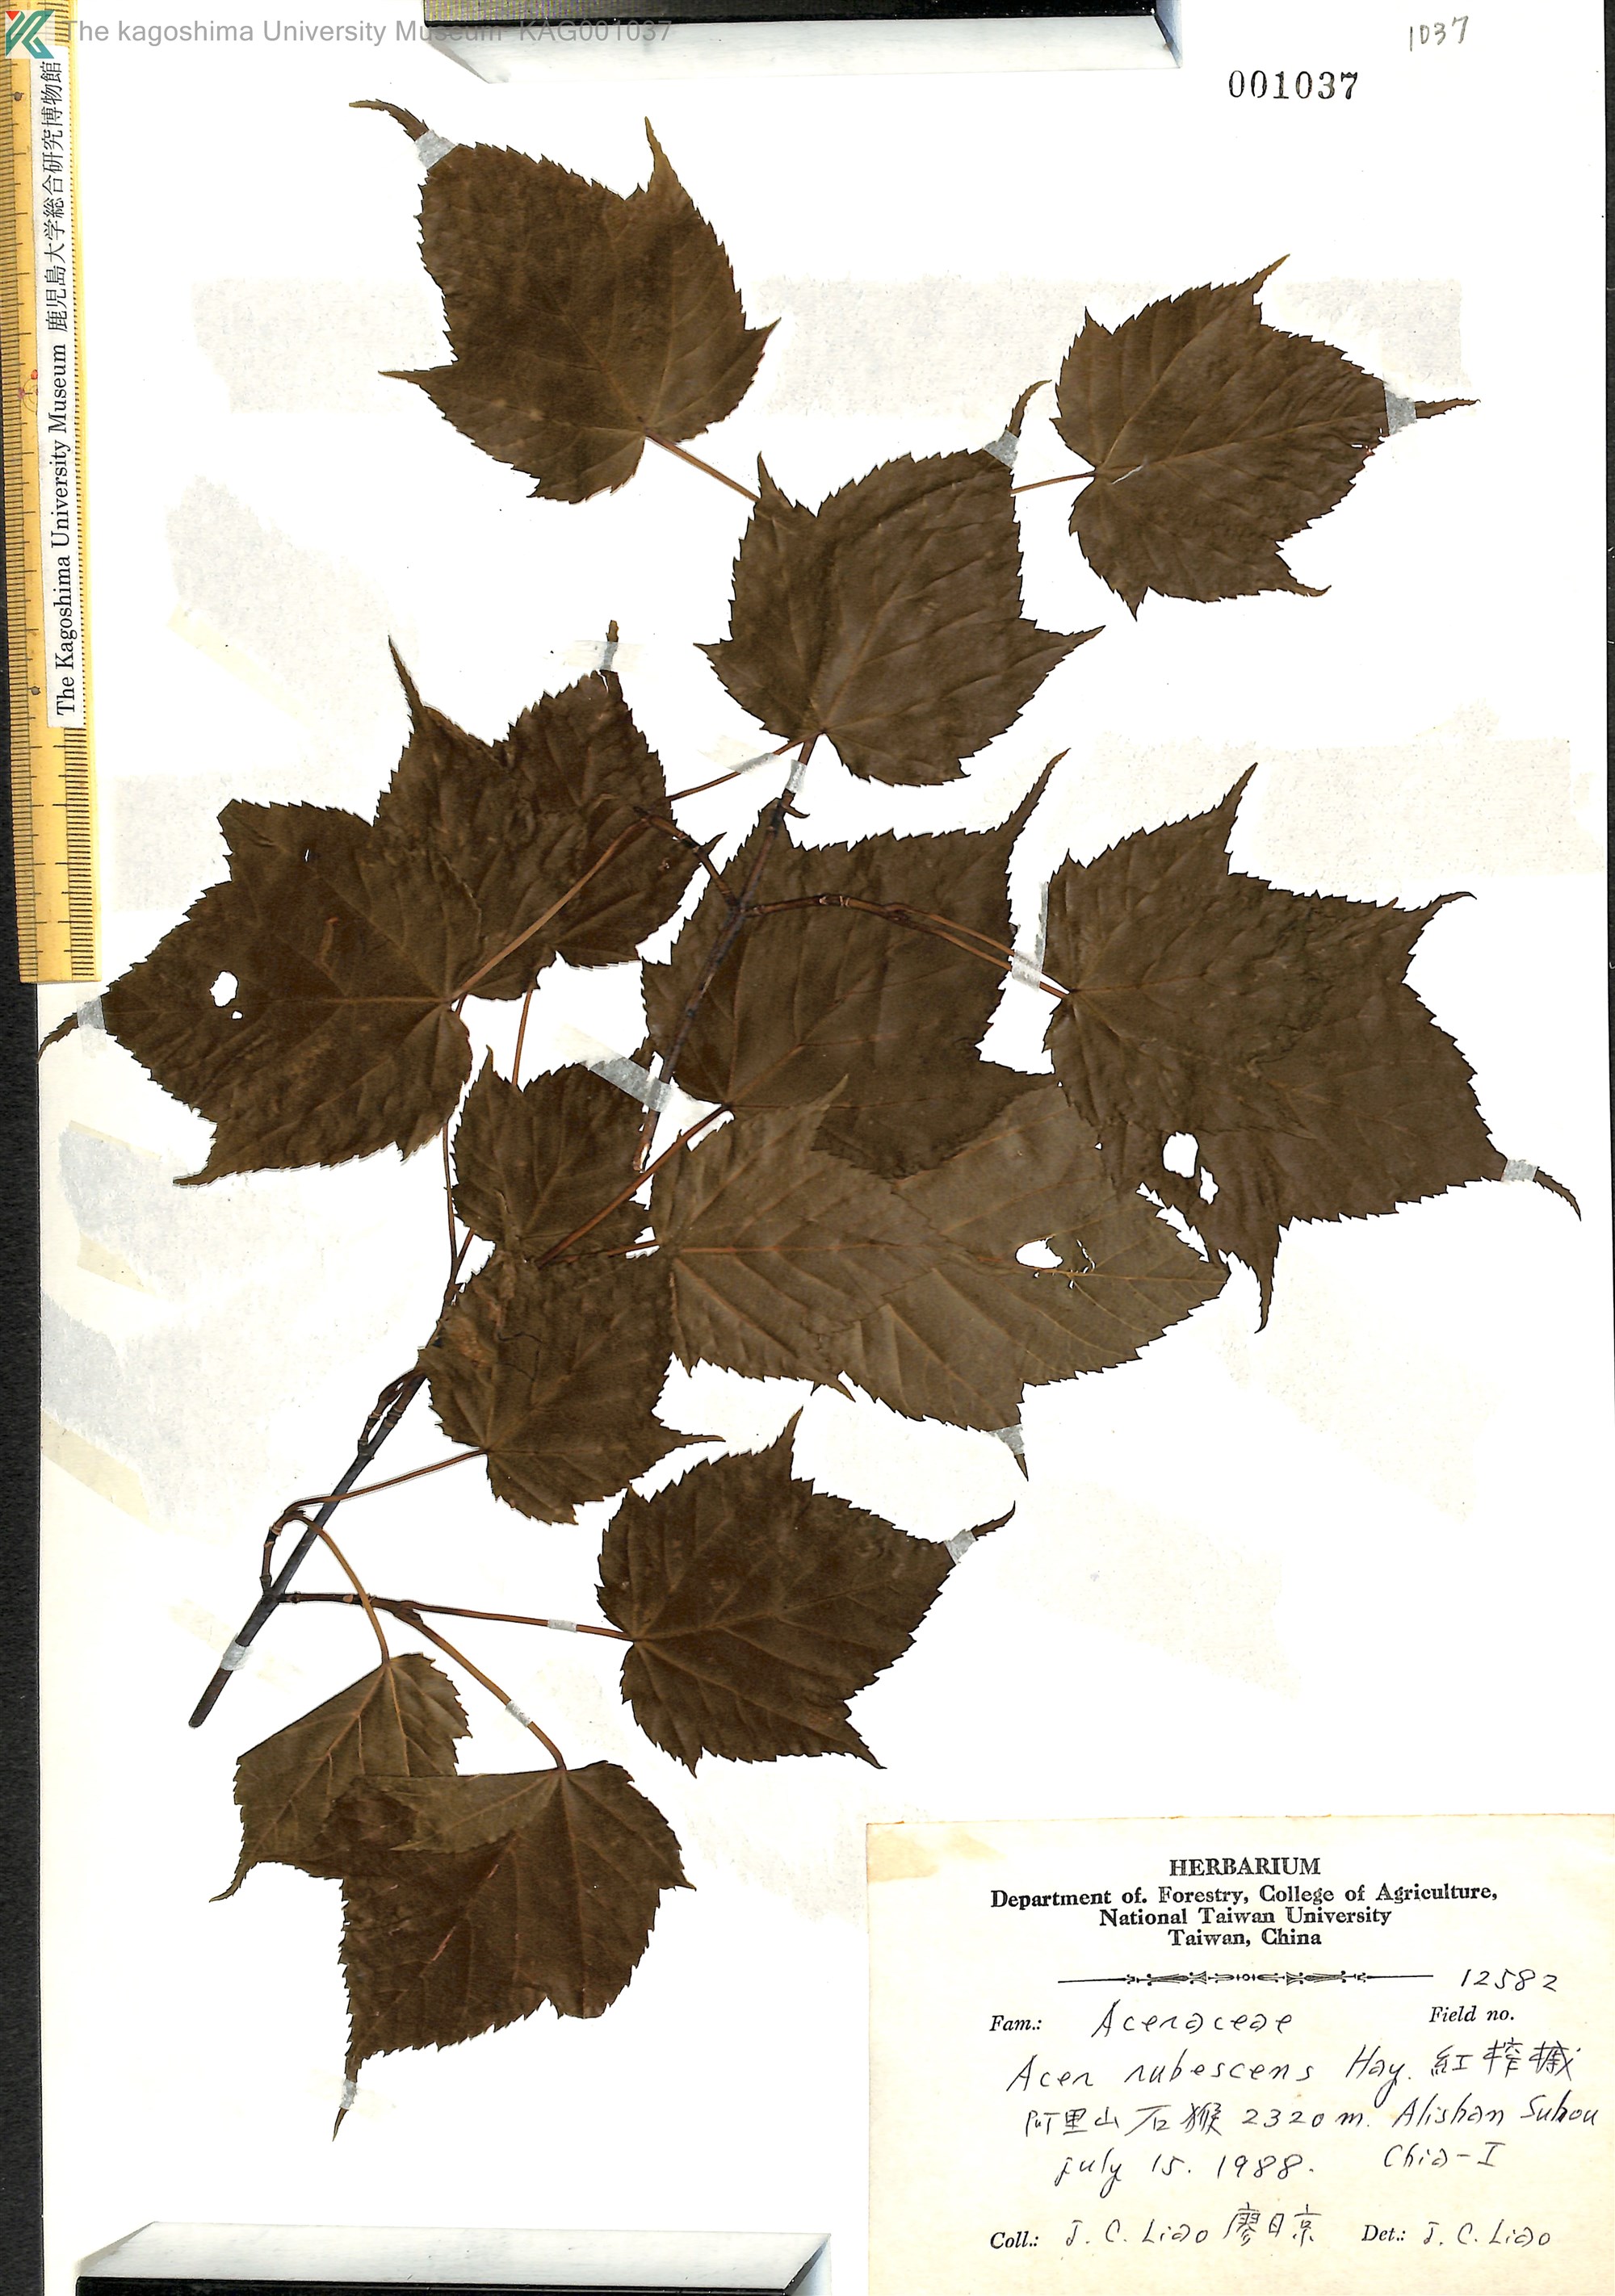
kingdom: Plantae
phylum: Tracheophyta
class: Magnoliopsida
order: Sapindales
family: Sapindaceae
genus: Acer
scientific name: Acer caudatifolium
